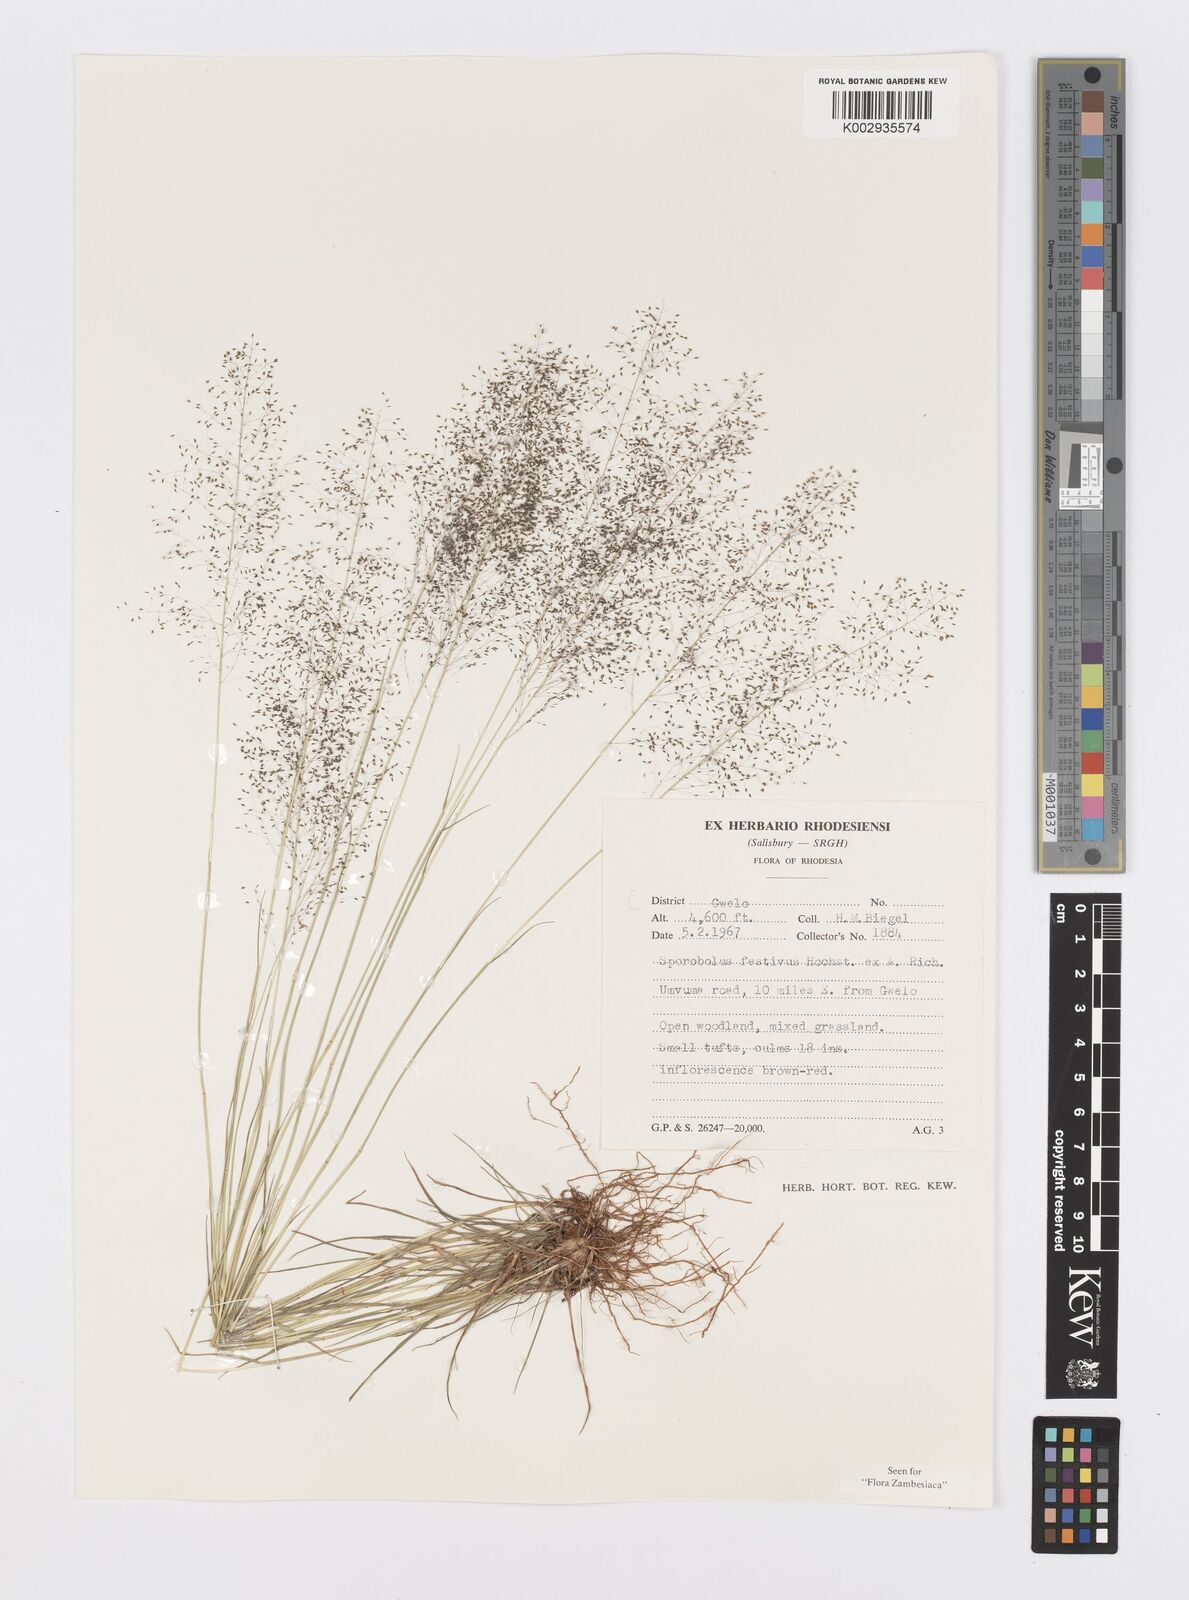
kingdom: Plantae
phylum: Tracheophyta
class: Liliopsida
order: Poales
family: Poaceae
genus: Sporobolus
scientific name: Sporobolus festivus
